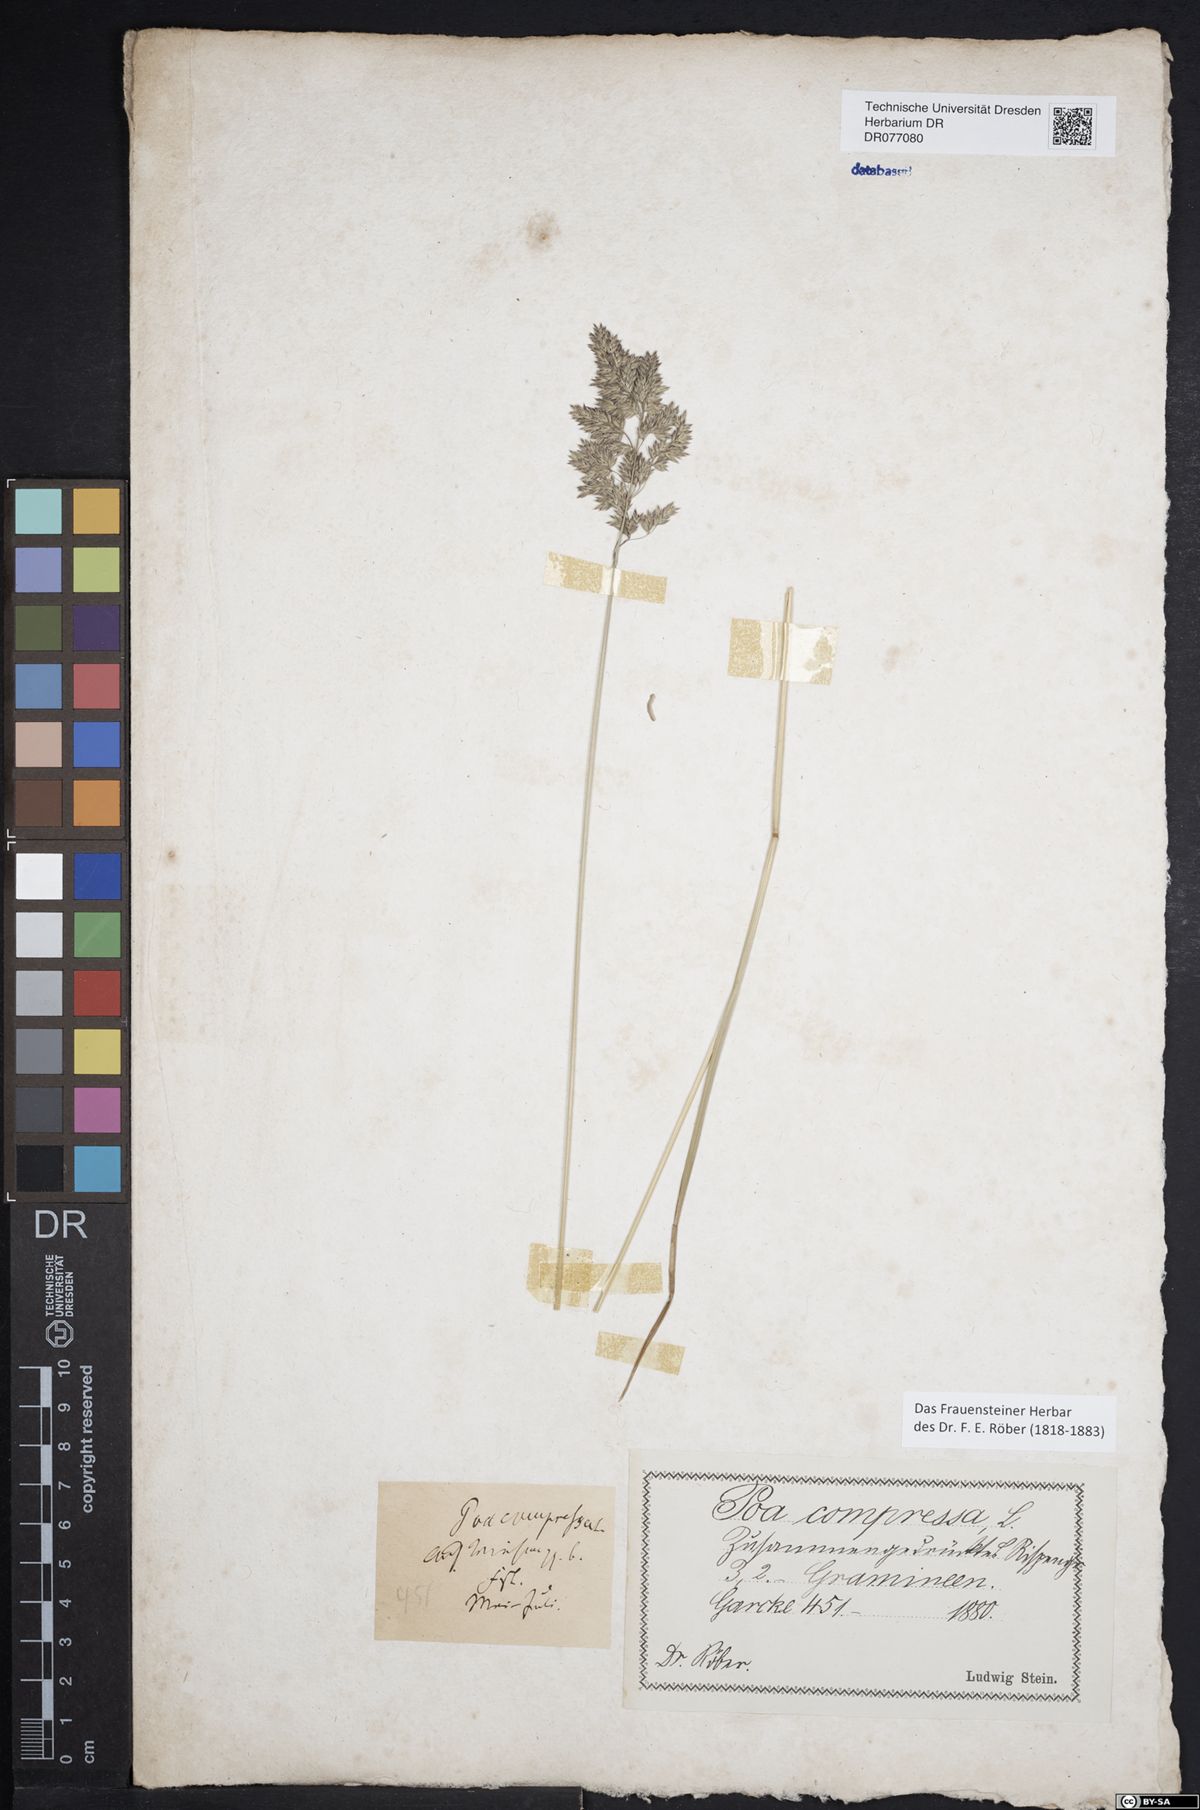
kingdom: Plantae
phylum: Tracheophyta
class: Liliopsida
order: Poales
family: Poaceae
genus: Poa
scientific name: Poa compressa
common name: Canada bluegrass
